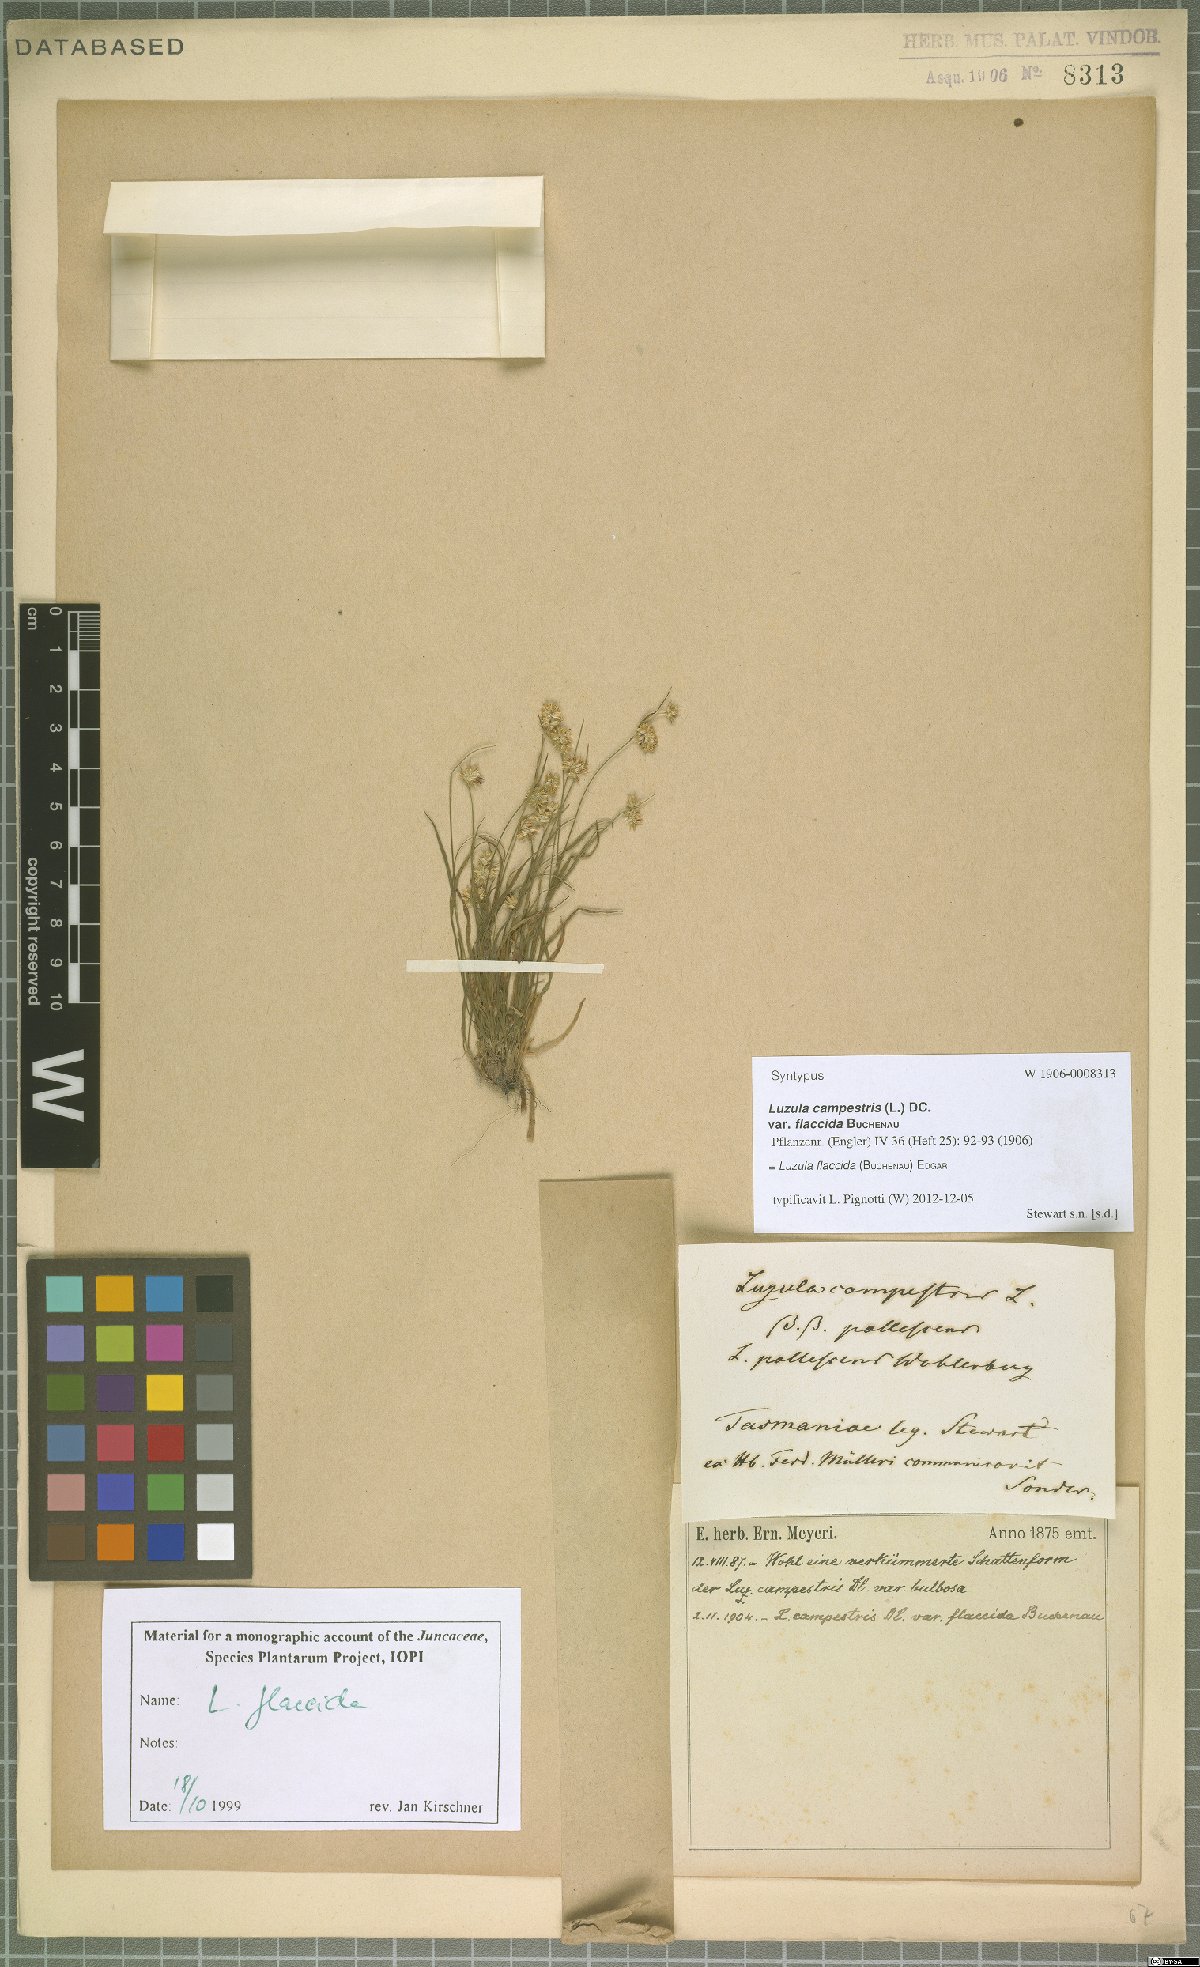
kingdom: Plantae
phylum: Tracheophyta
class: Liliopsida
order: Poales
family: Juncaceae
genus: Luzula
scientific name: Luzula flaccida
